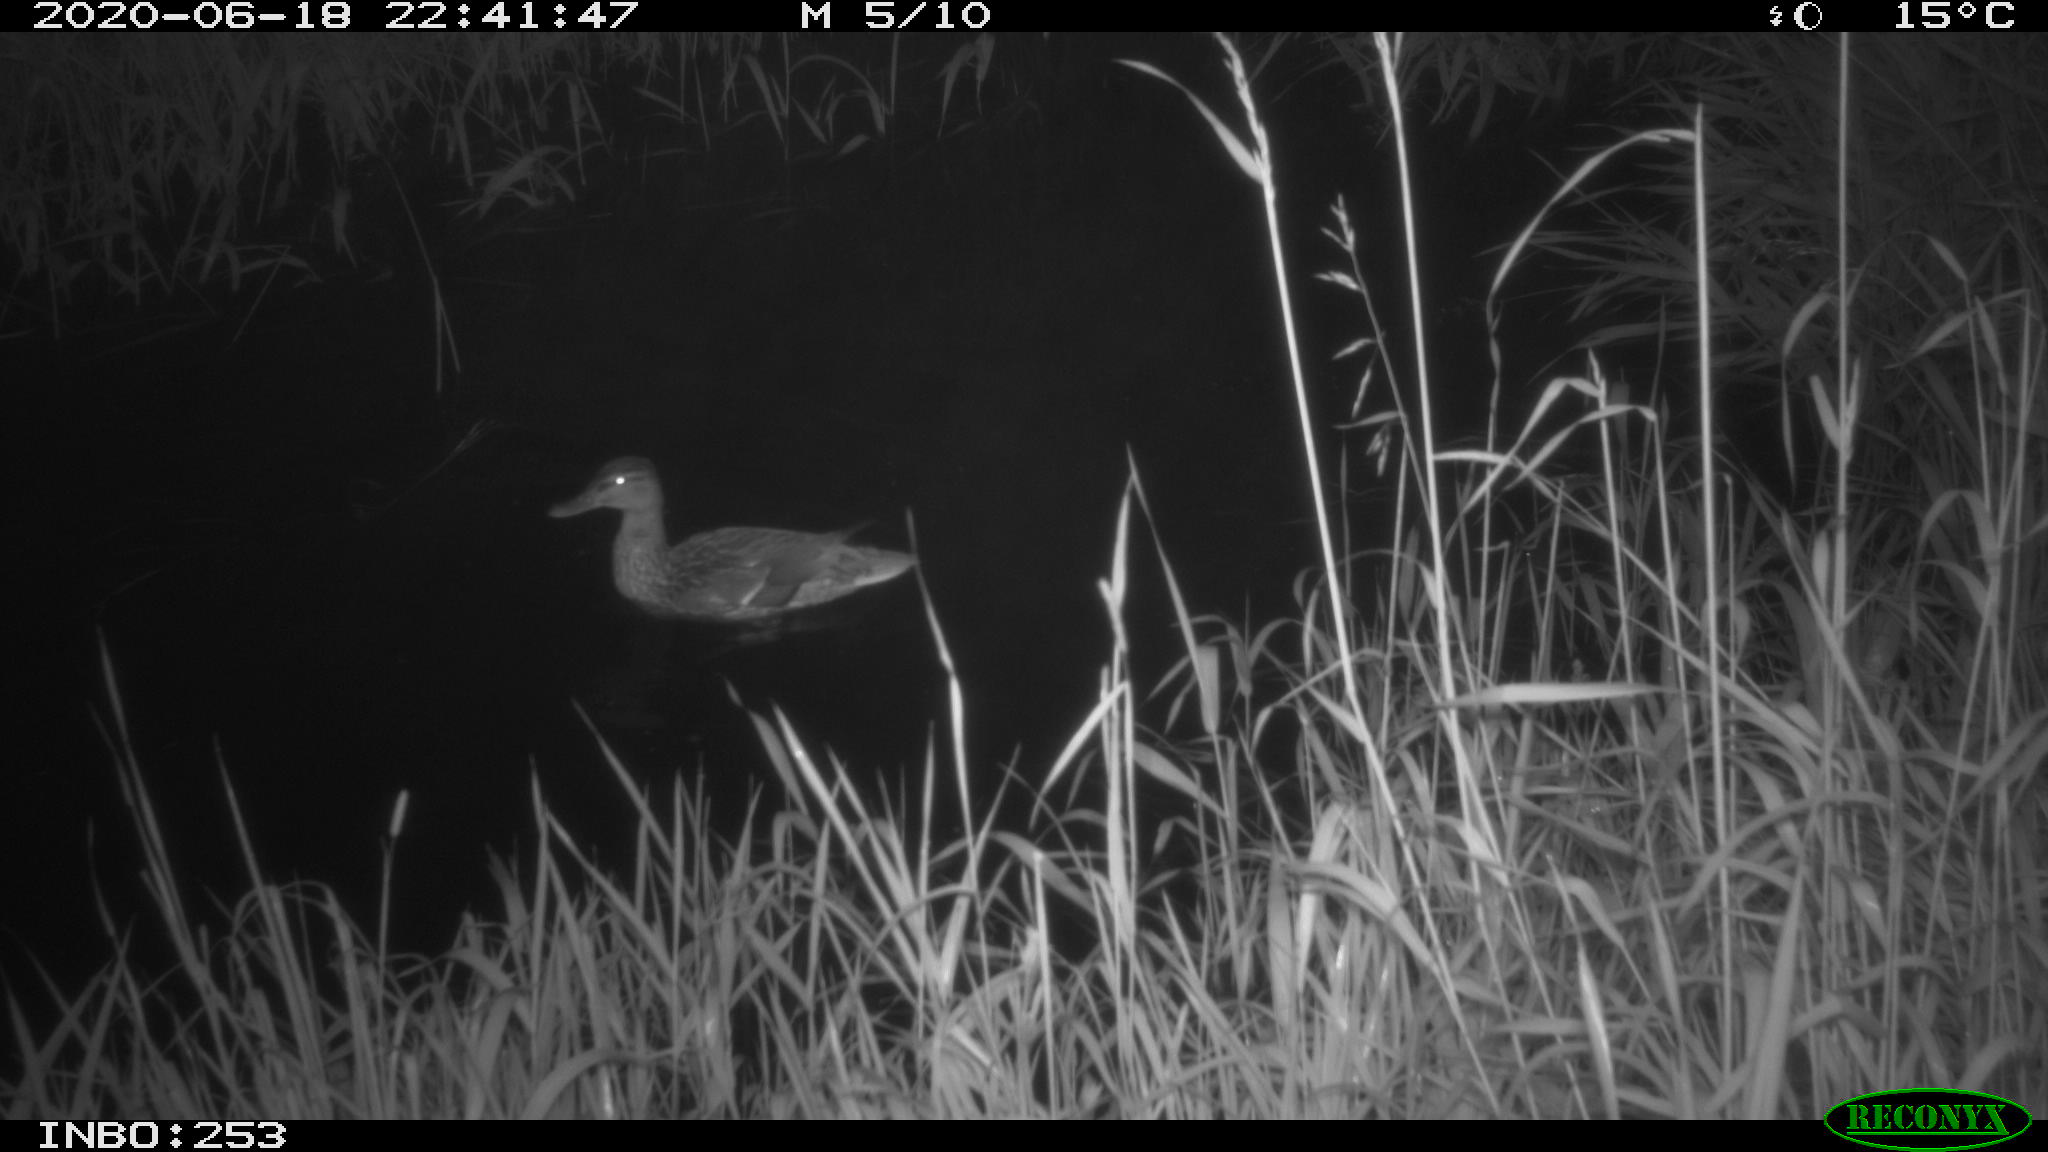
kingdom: Animalia
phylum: Chordata
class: Aves
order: Anseriformes
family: Anatidae
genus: Anas
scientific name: Anas platyrhynchos
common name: Mallard
